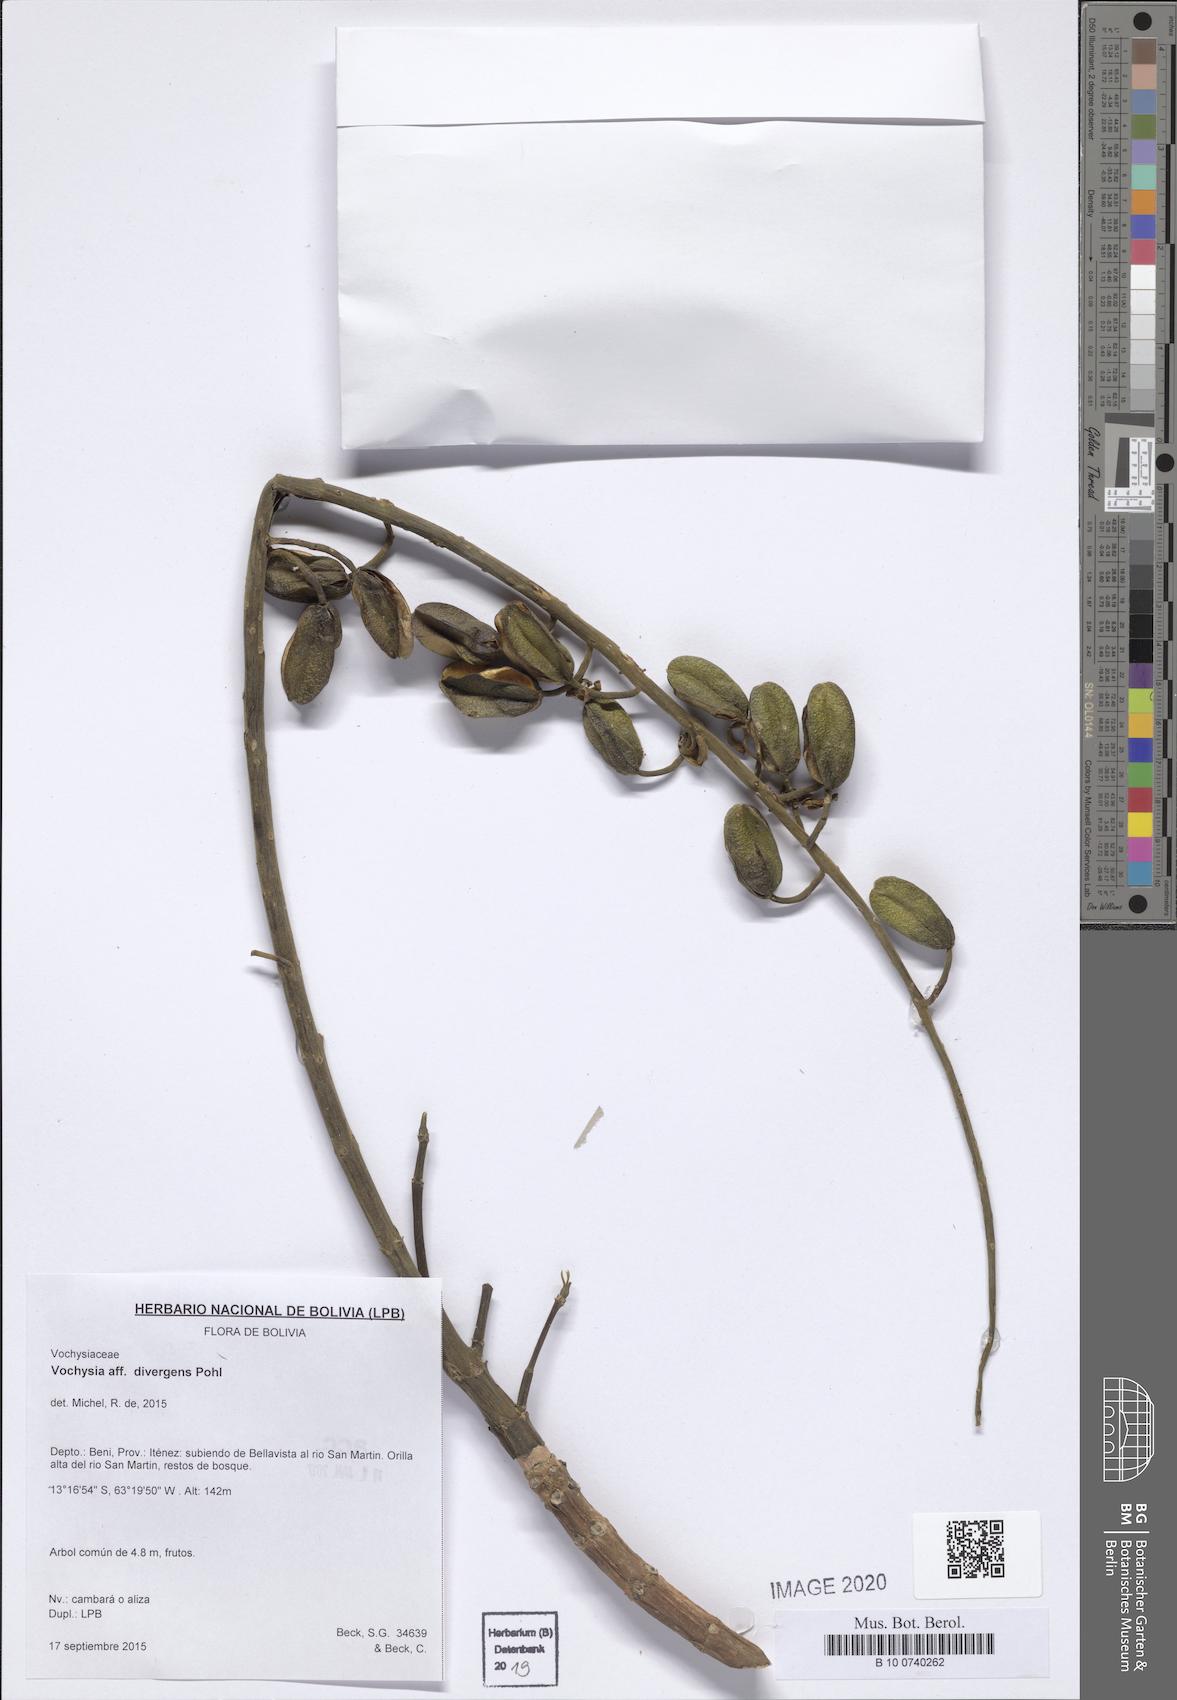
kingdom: Plantae
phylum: Tracheophyta
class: Magnoliopsida
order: Myrtales
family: Vochysiaceae
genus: Vochysia
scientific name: Vochysia divergens
